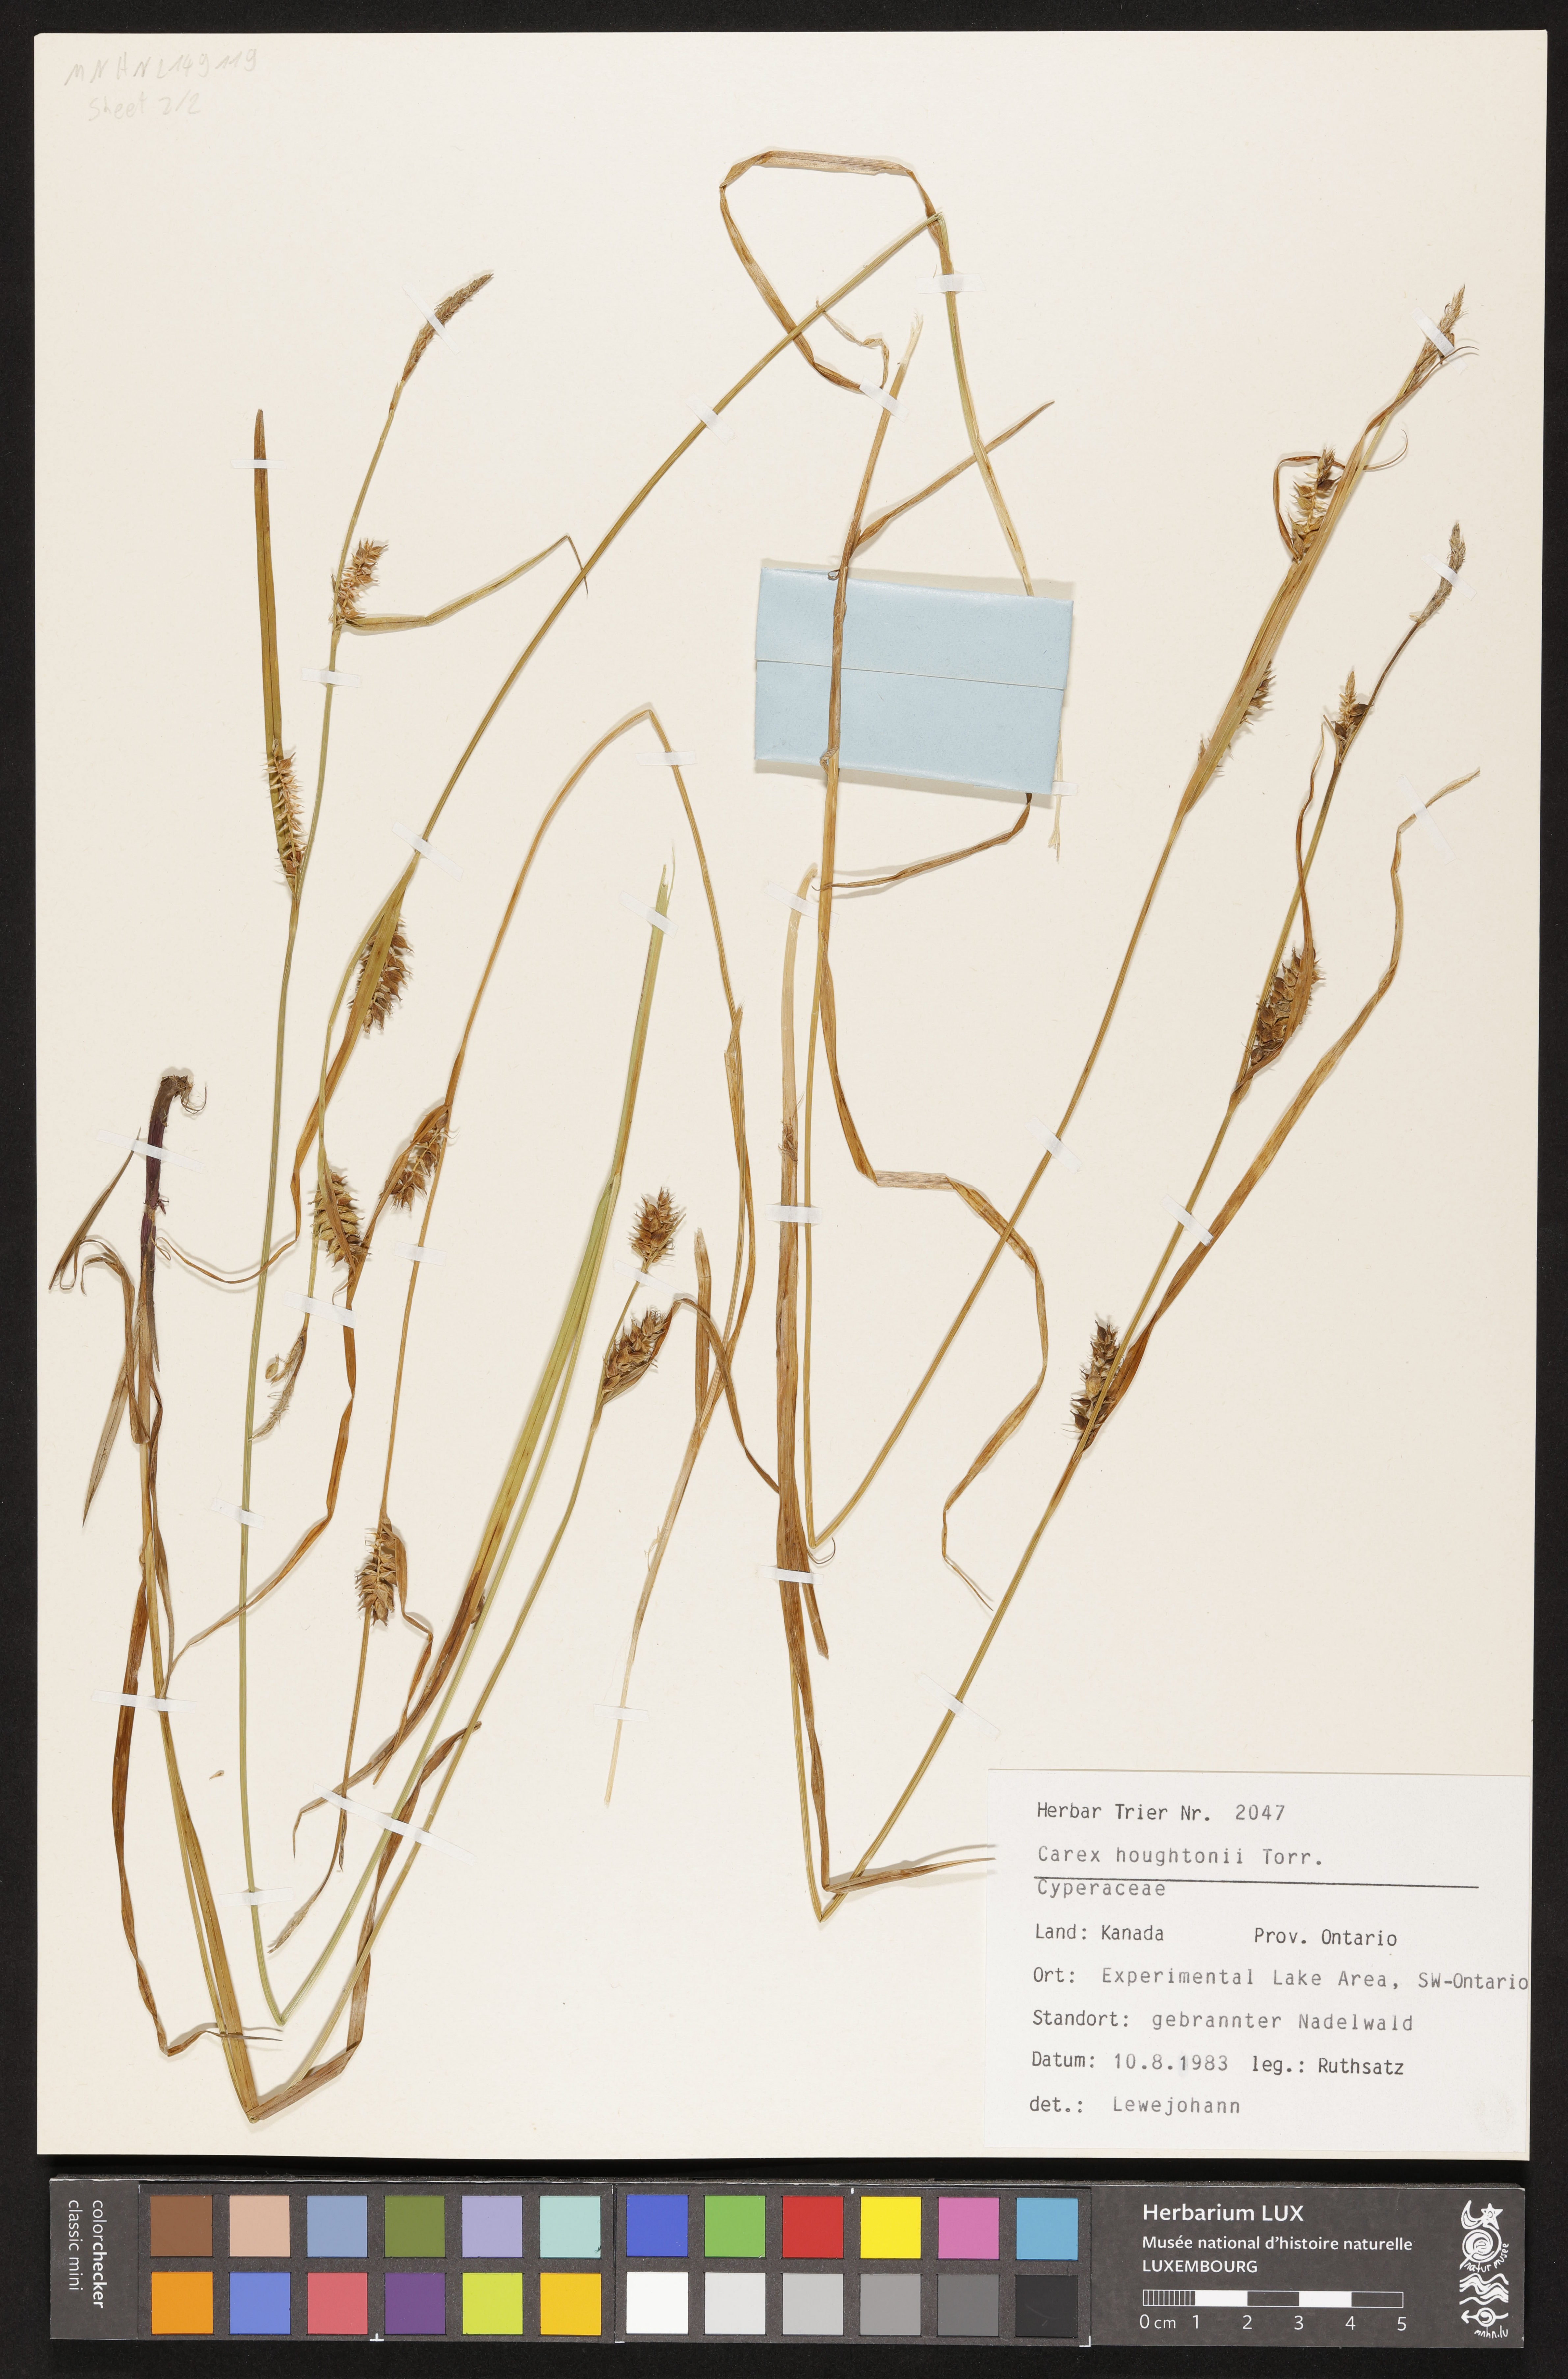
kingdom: Plantae
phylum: Tracheophyta
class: Liliopsida
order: Poales
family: Cyperaceae
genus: Carex
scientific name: Carex houghtoniana
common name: Houghton's sedge
